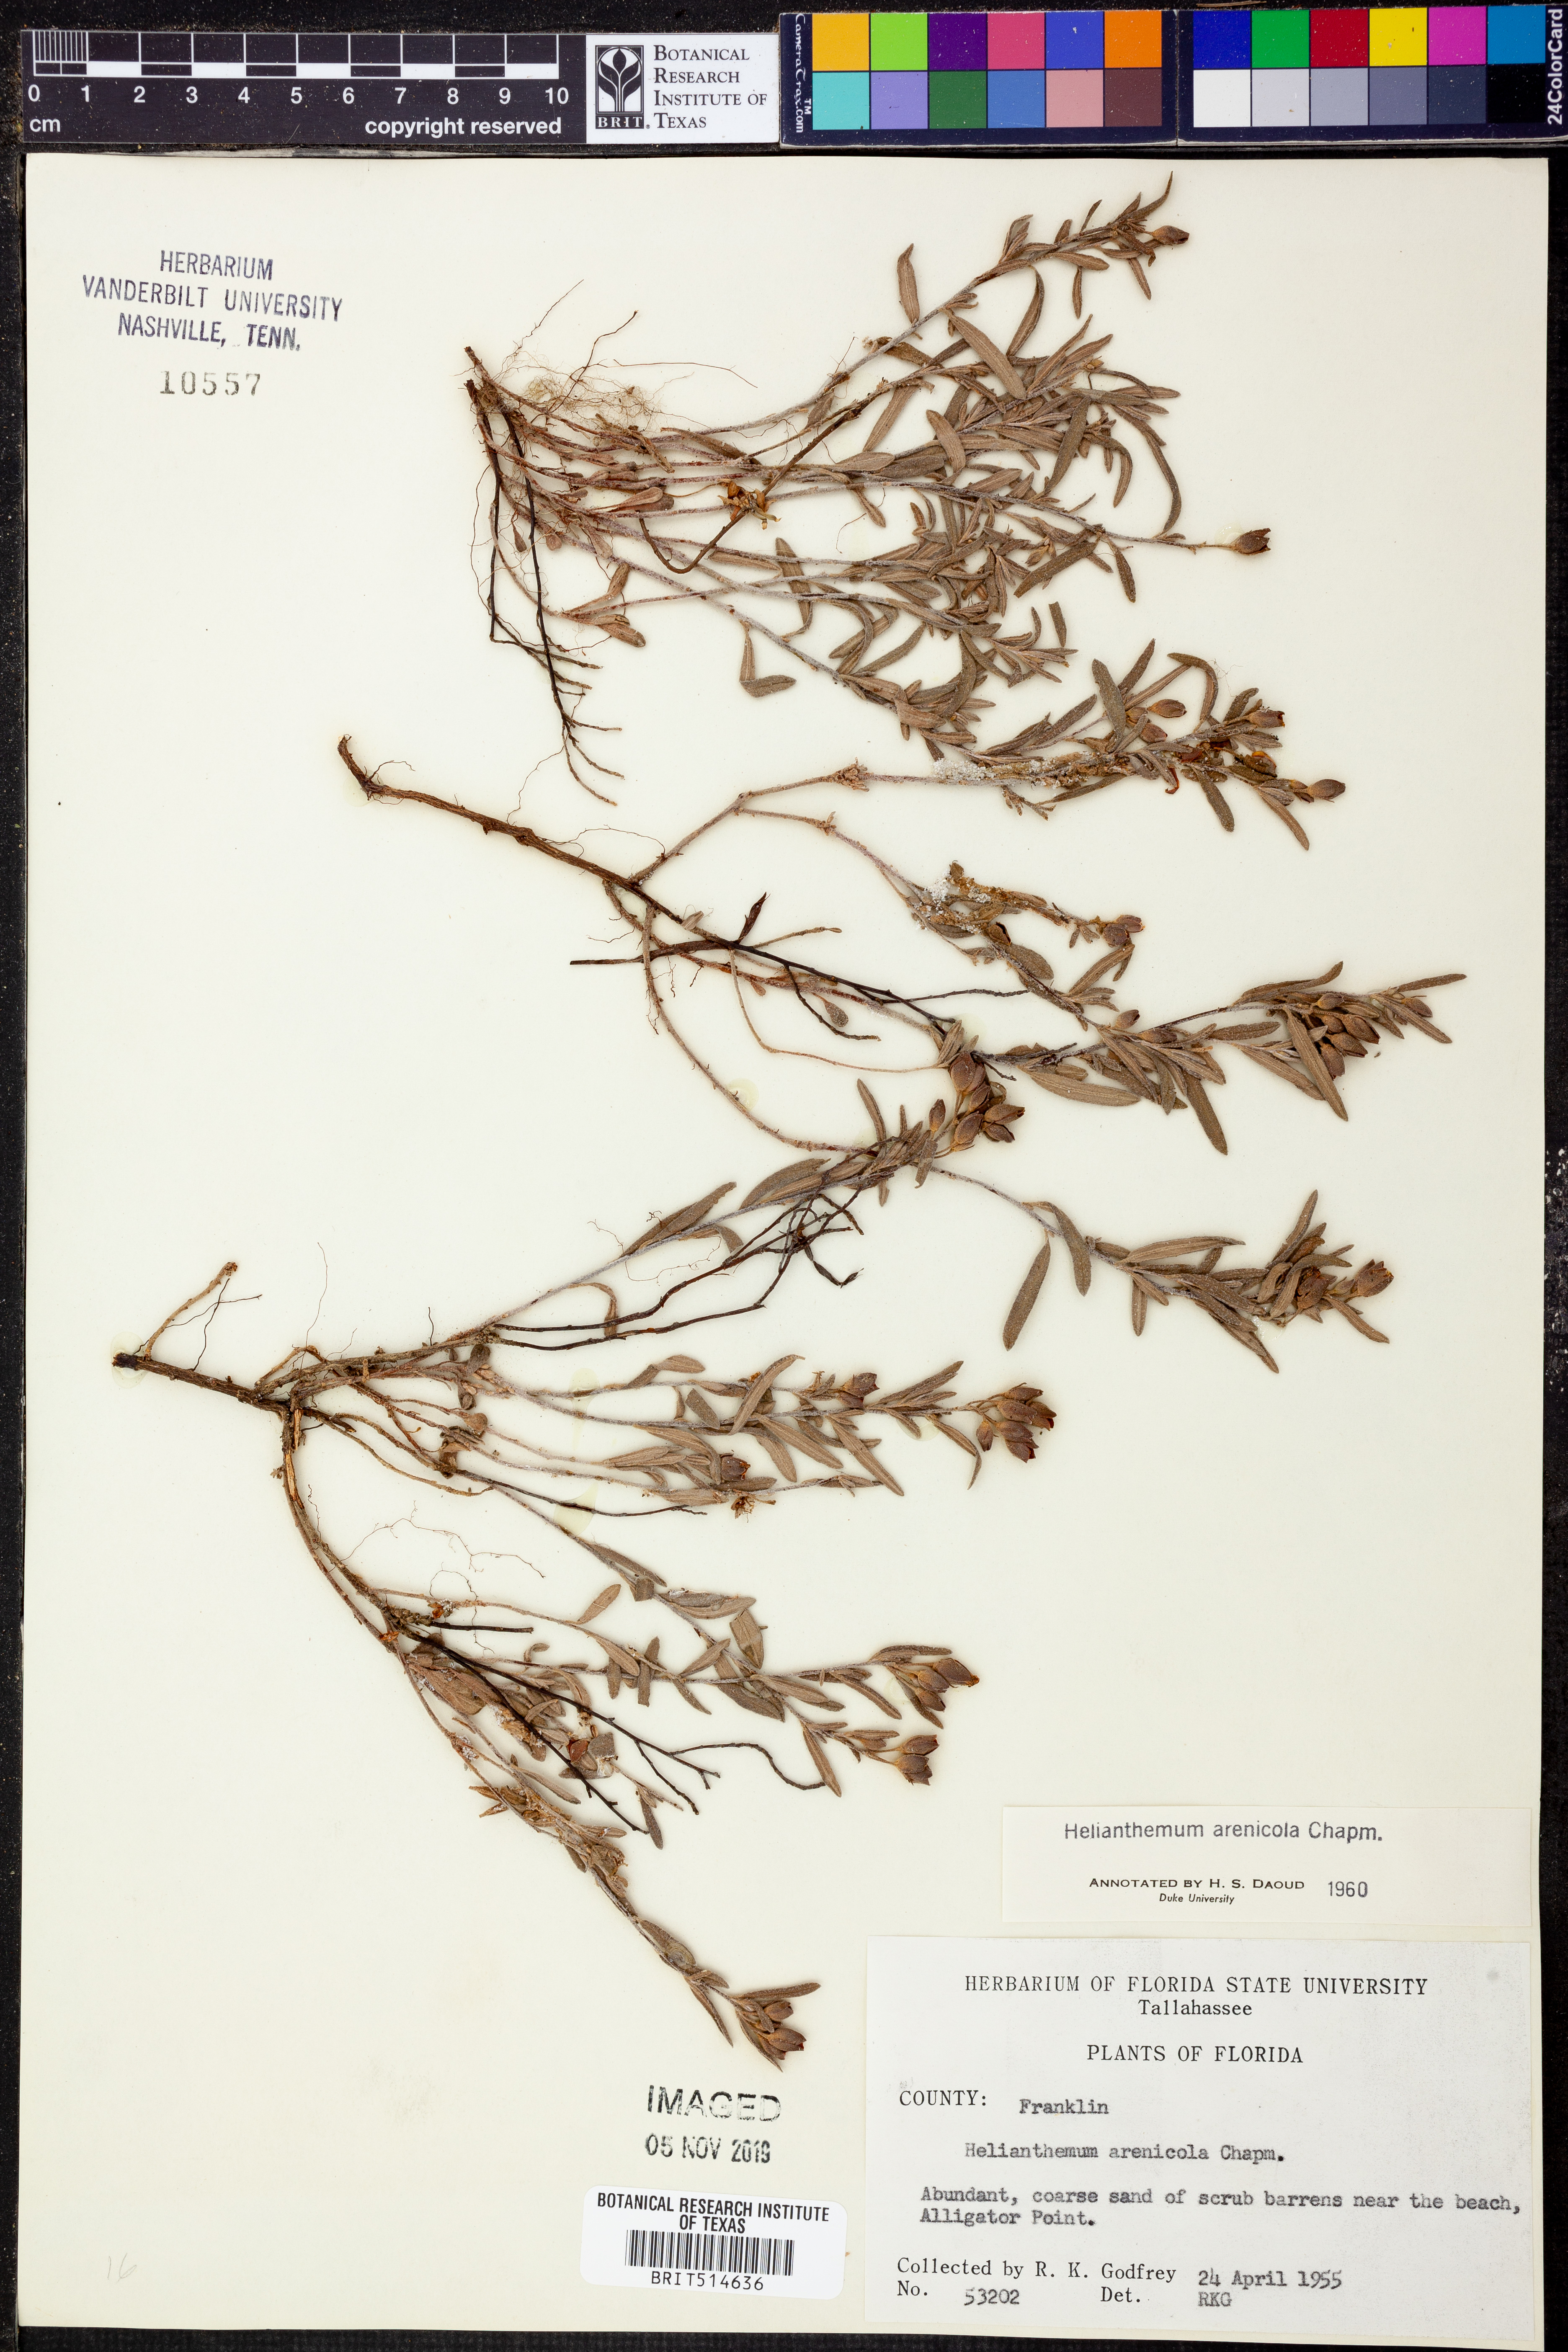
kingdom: Plantae
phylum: Tracheophyta
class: Magnoliopsida
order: Malvales
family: Cistaceae
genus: Crocanthemum
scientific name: Crocanthemum arenicola
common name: Gulf coast frostweed
